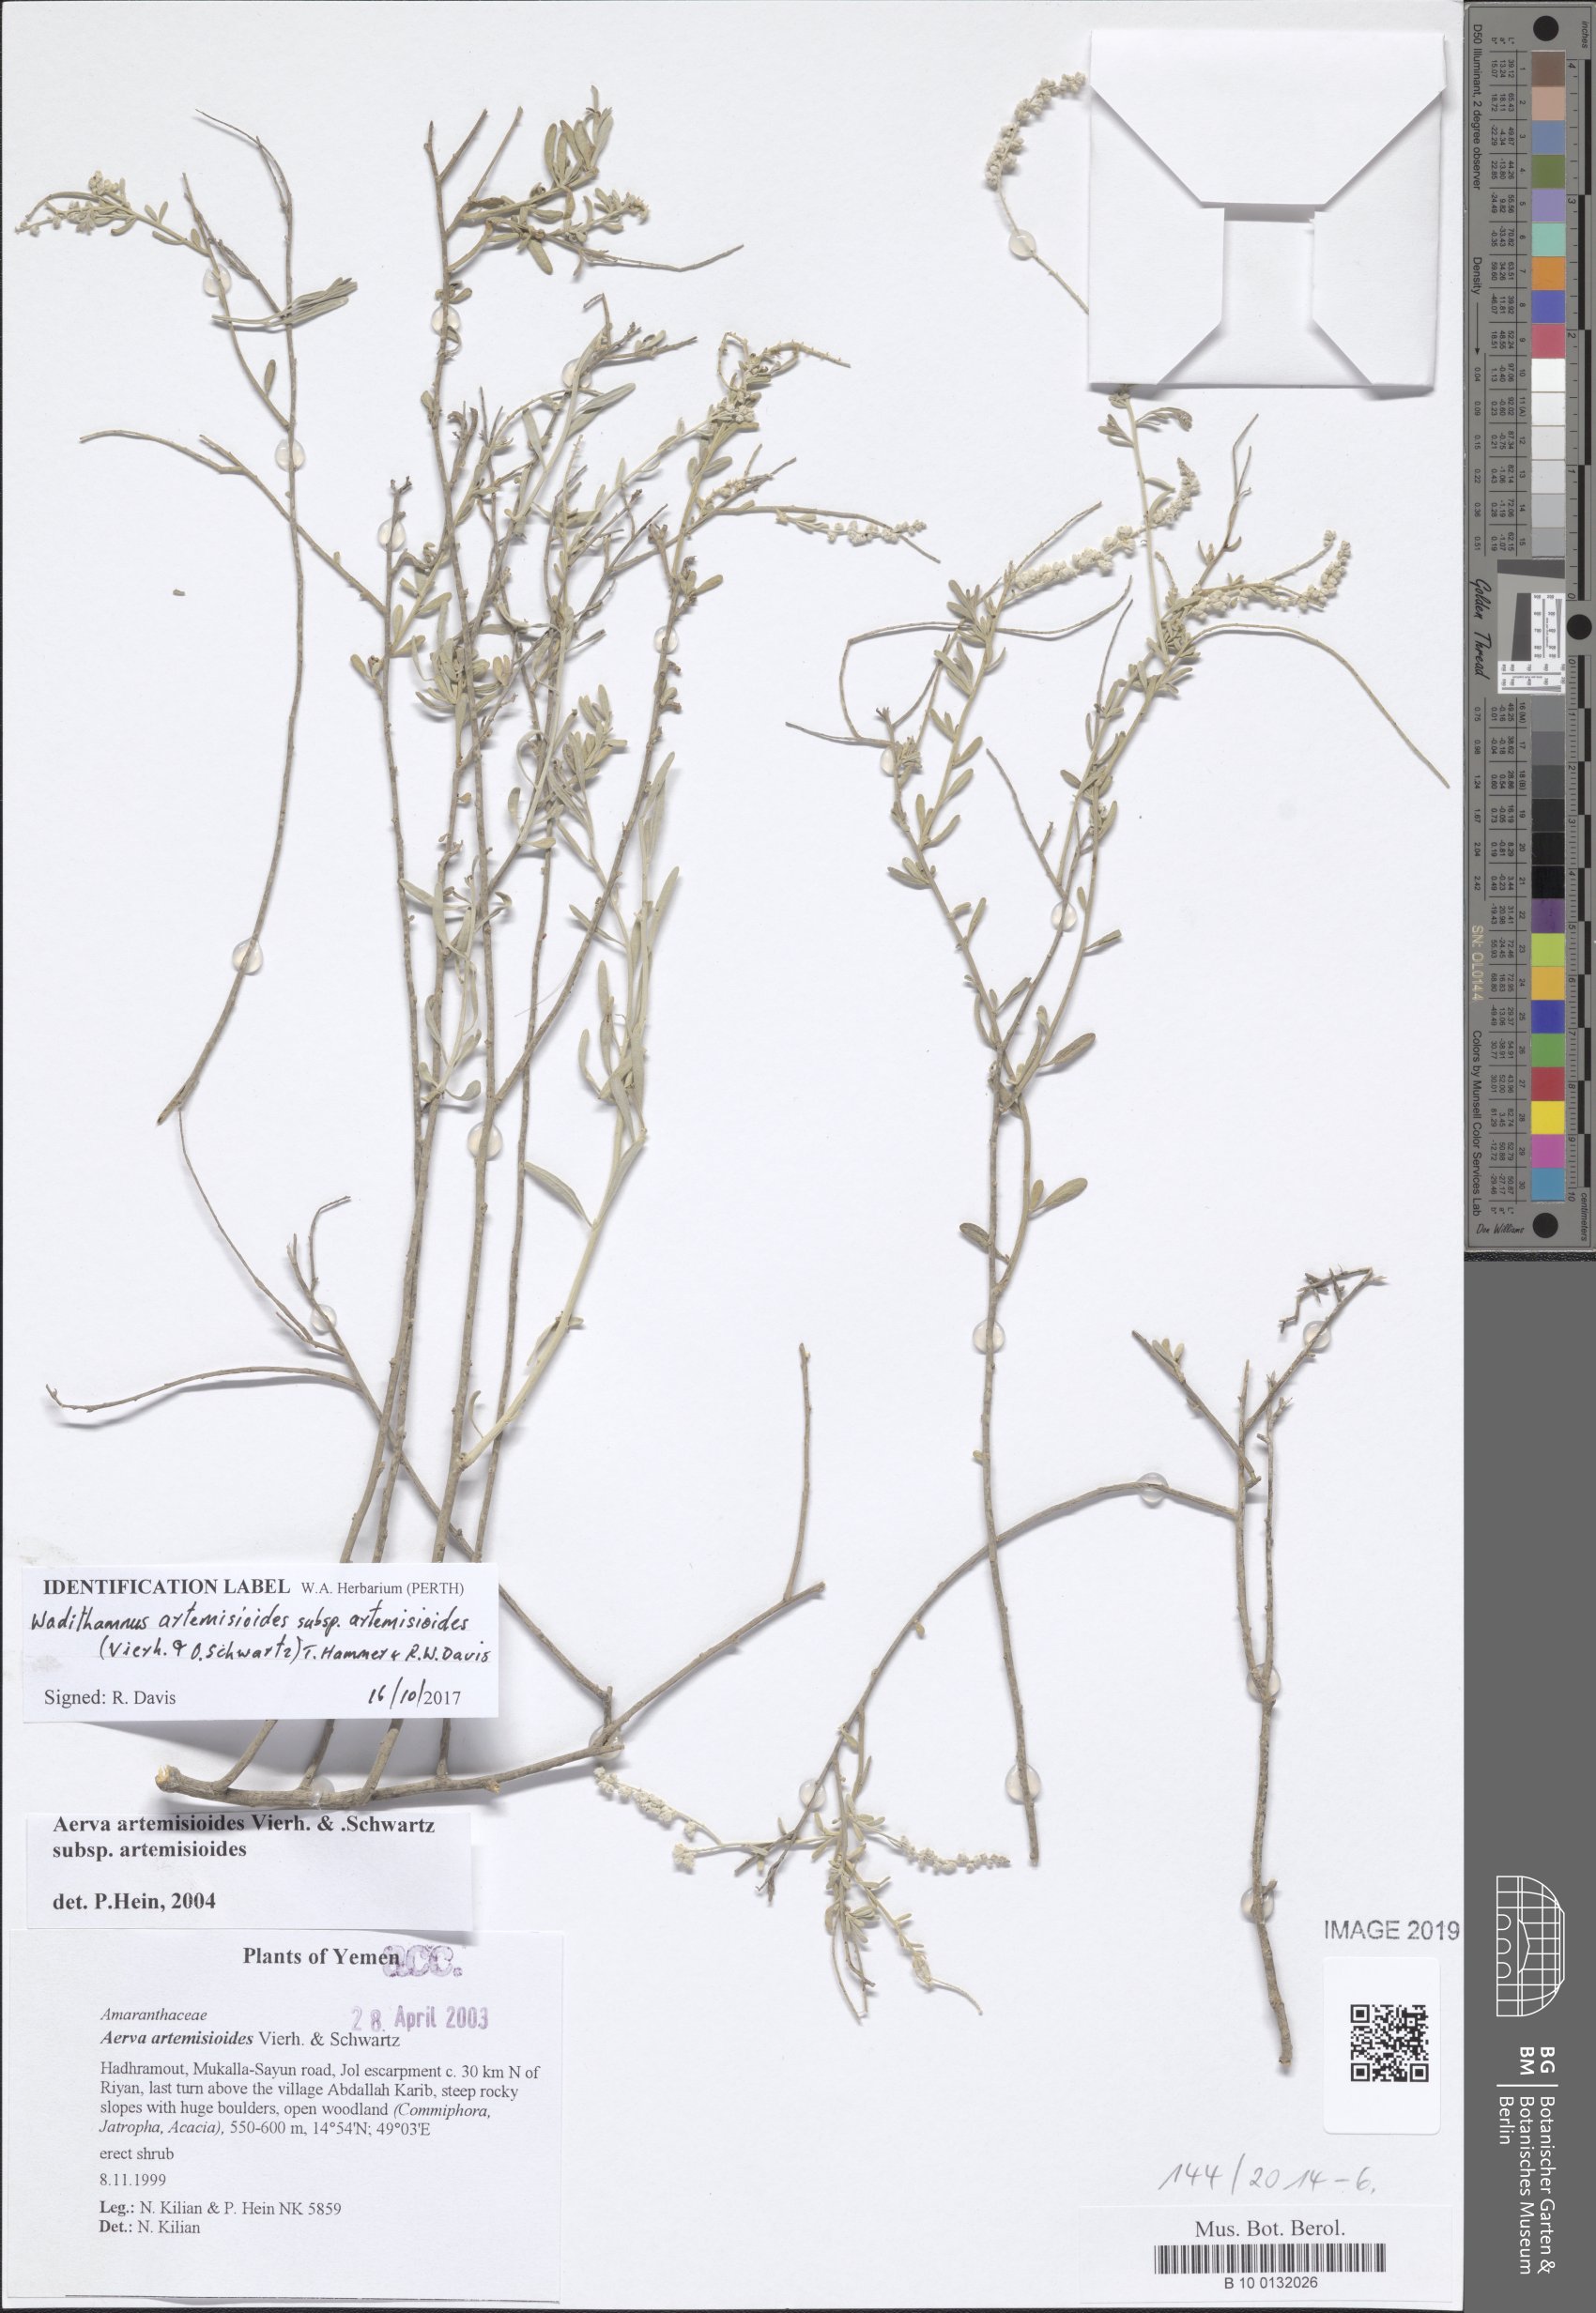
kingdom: Plantae
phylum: Tracheophyta
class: Magnoliopsida
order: Caryophyllales
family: Amaranthaceae
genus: Wadithamnus
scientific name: Wadithamnus artemisioides
